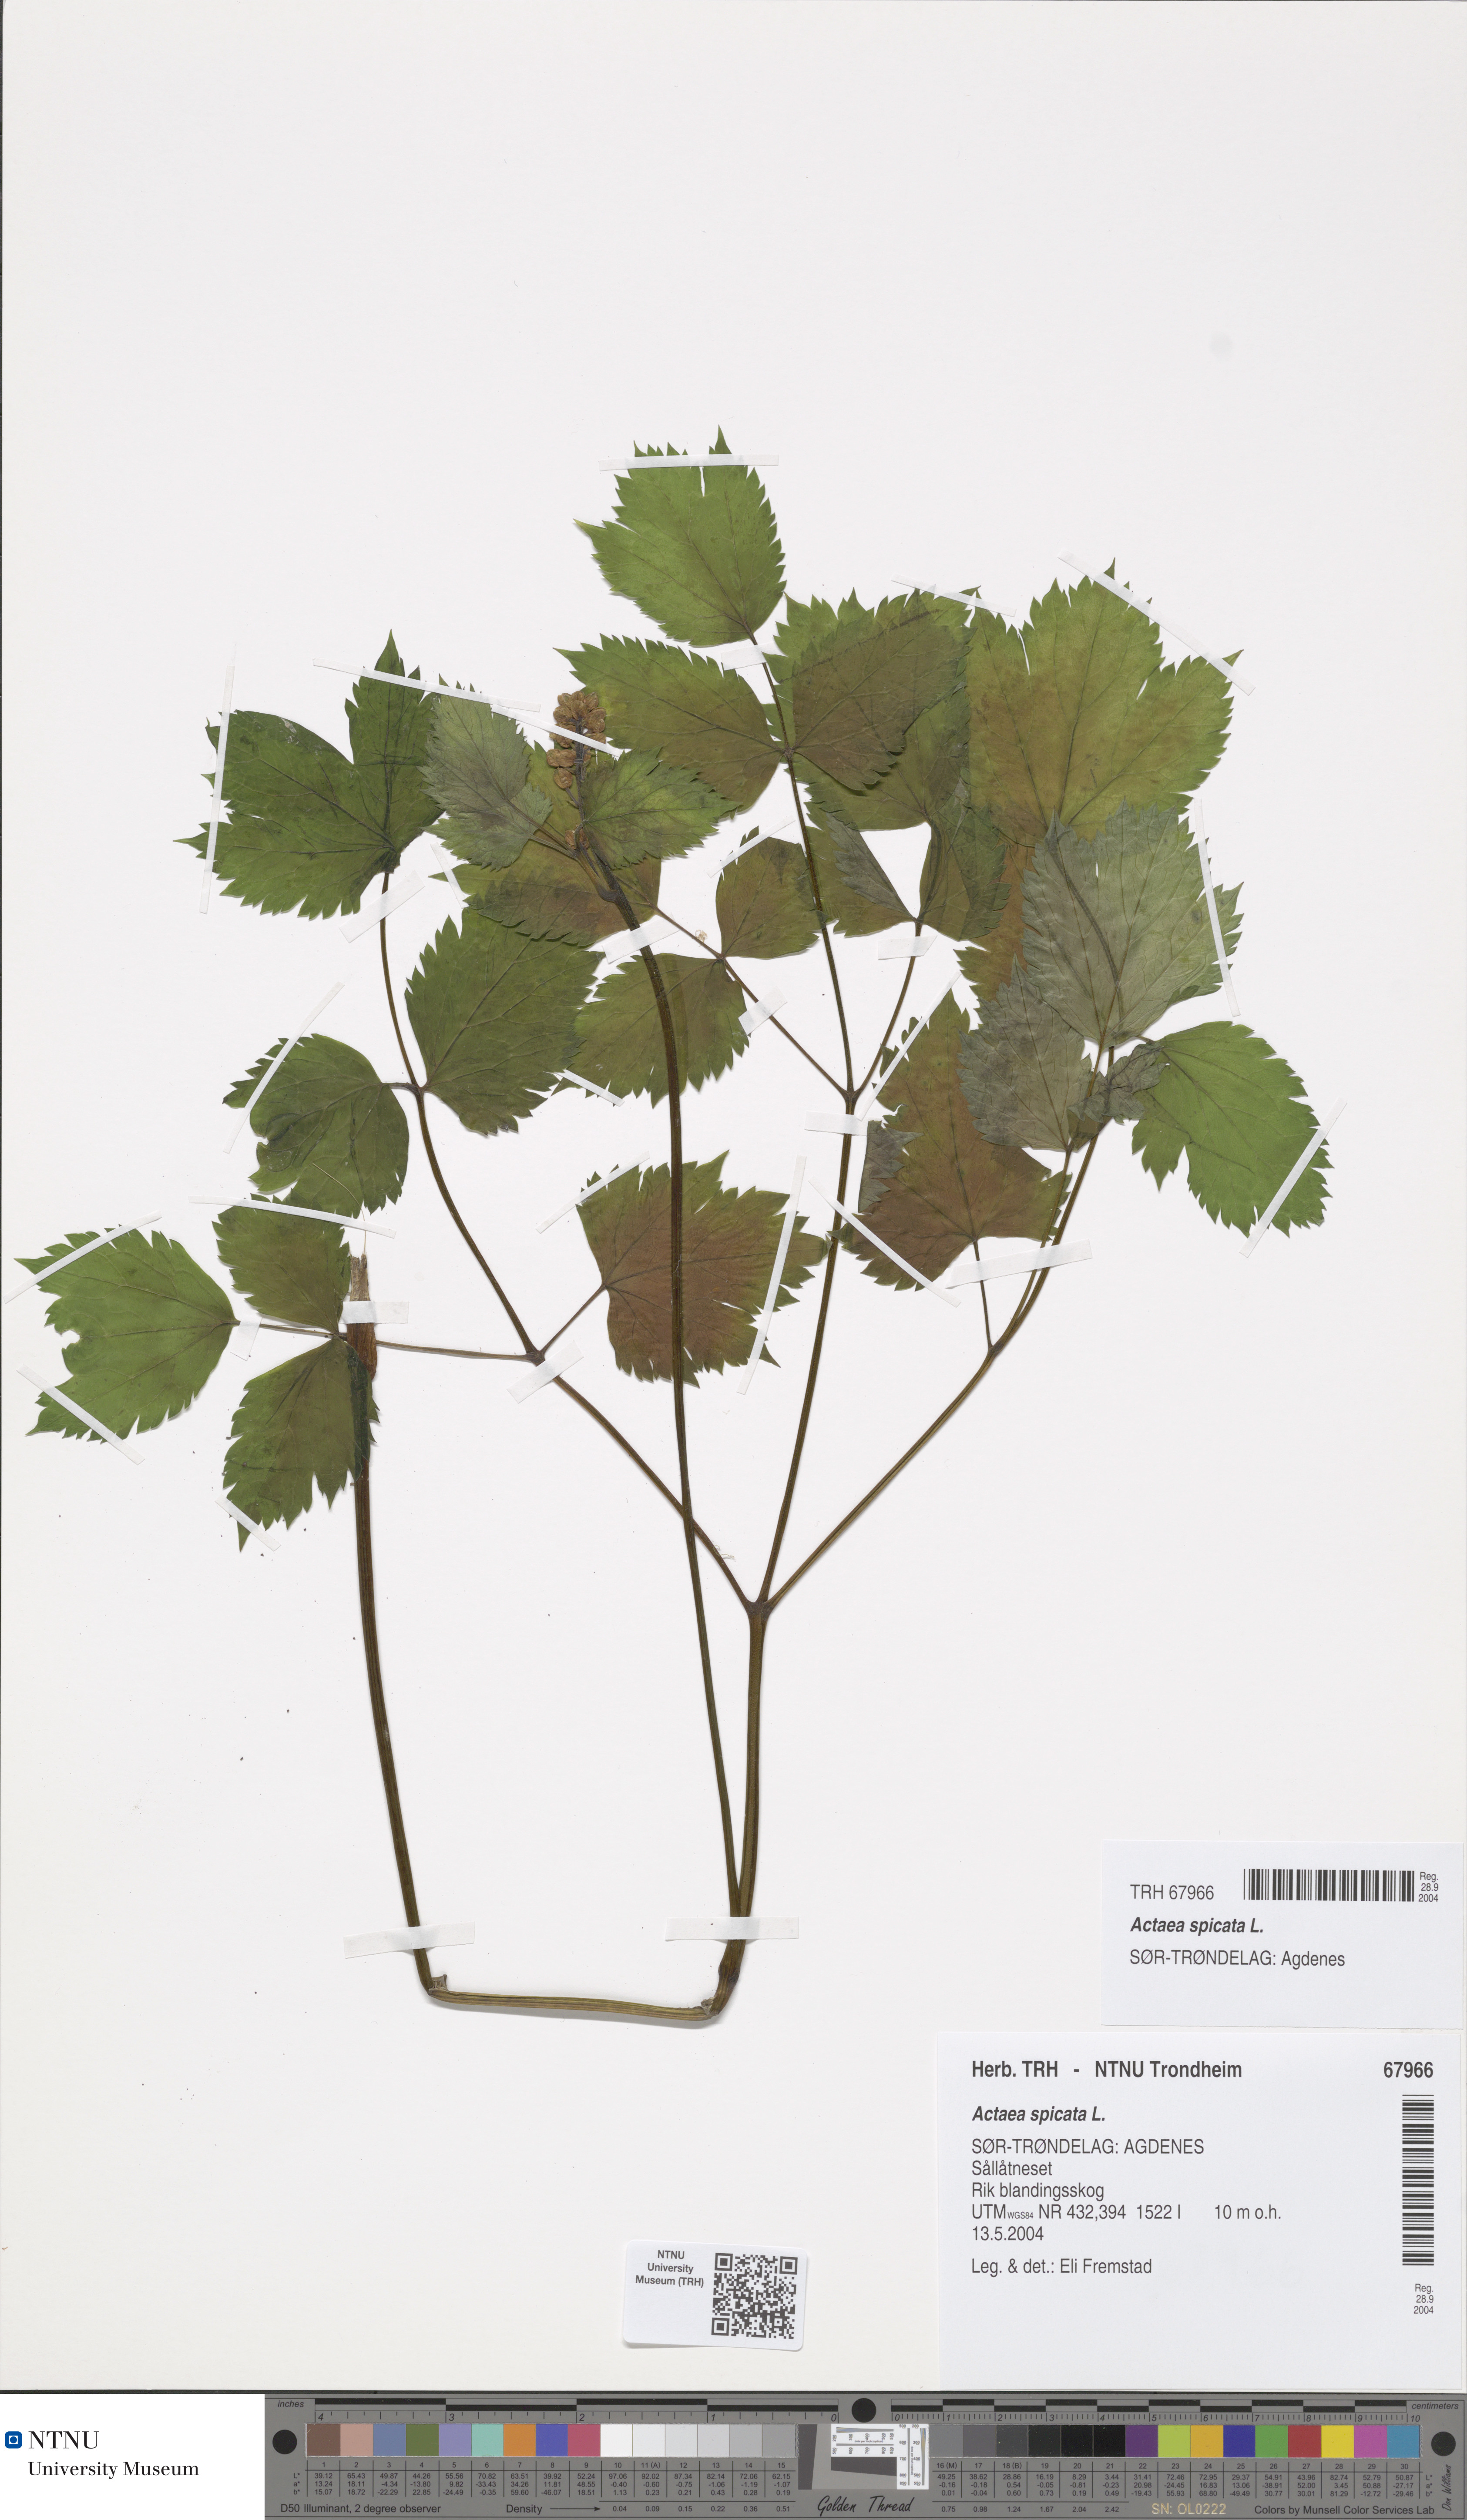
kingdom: Plantae
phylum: Tracheophyta
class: Magnoliopsida
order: Ranunculales
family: Ranunculaceae
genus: Actaea
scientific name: Actaea spicata
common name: Baneberry
